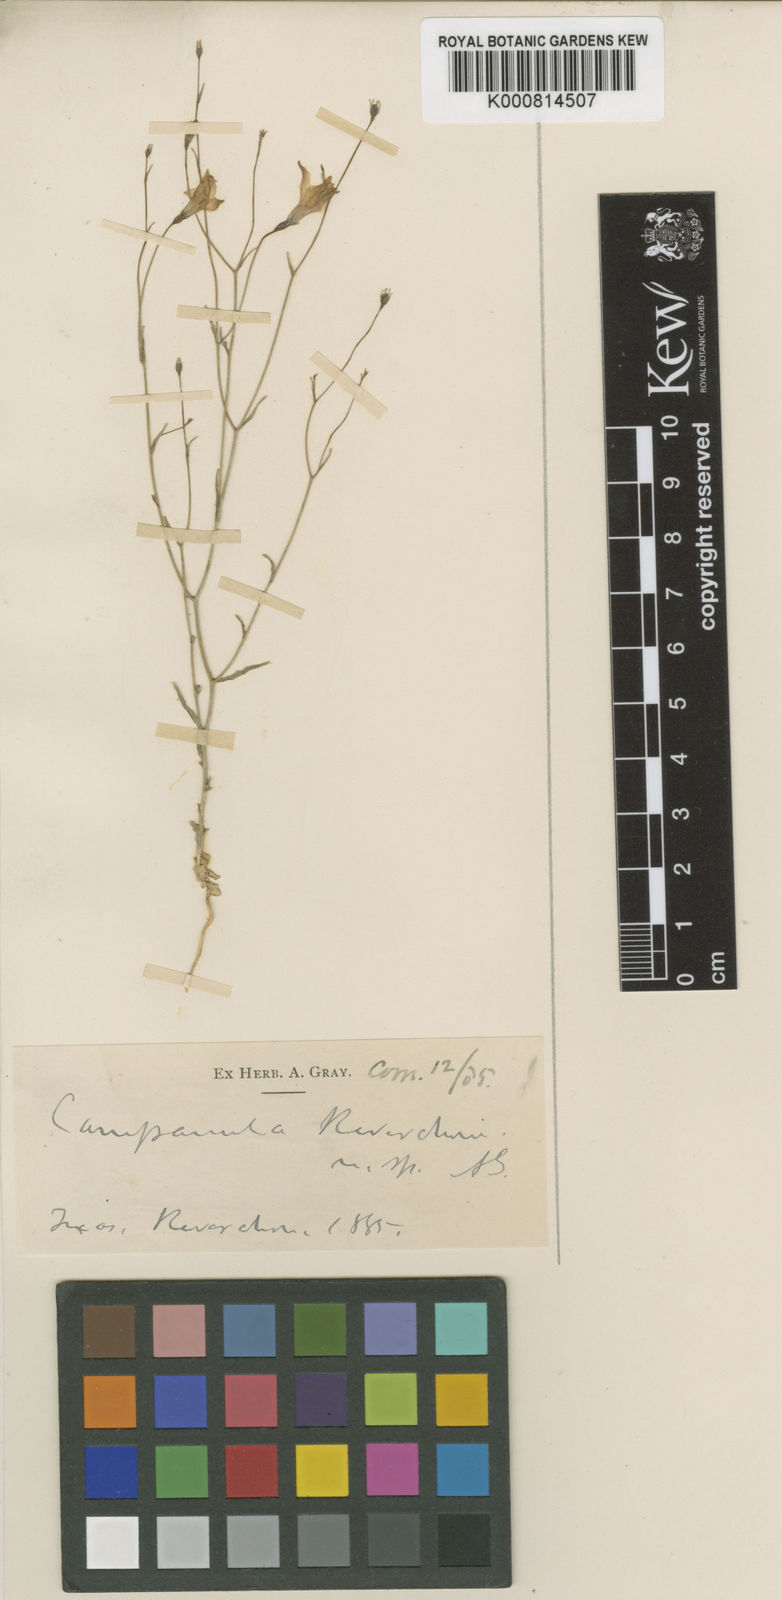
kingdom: Plantae
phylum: Tracheophyta
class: Magnoliopsida
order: Asterales
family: Campanulaceae
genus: Poolea
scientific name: Poolea reverchonii
